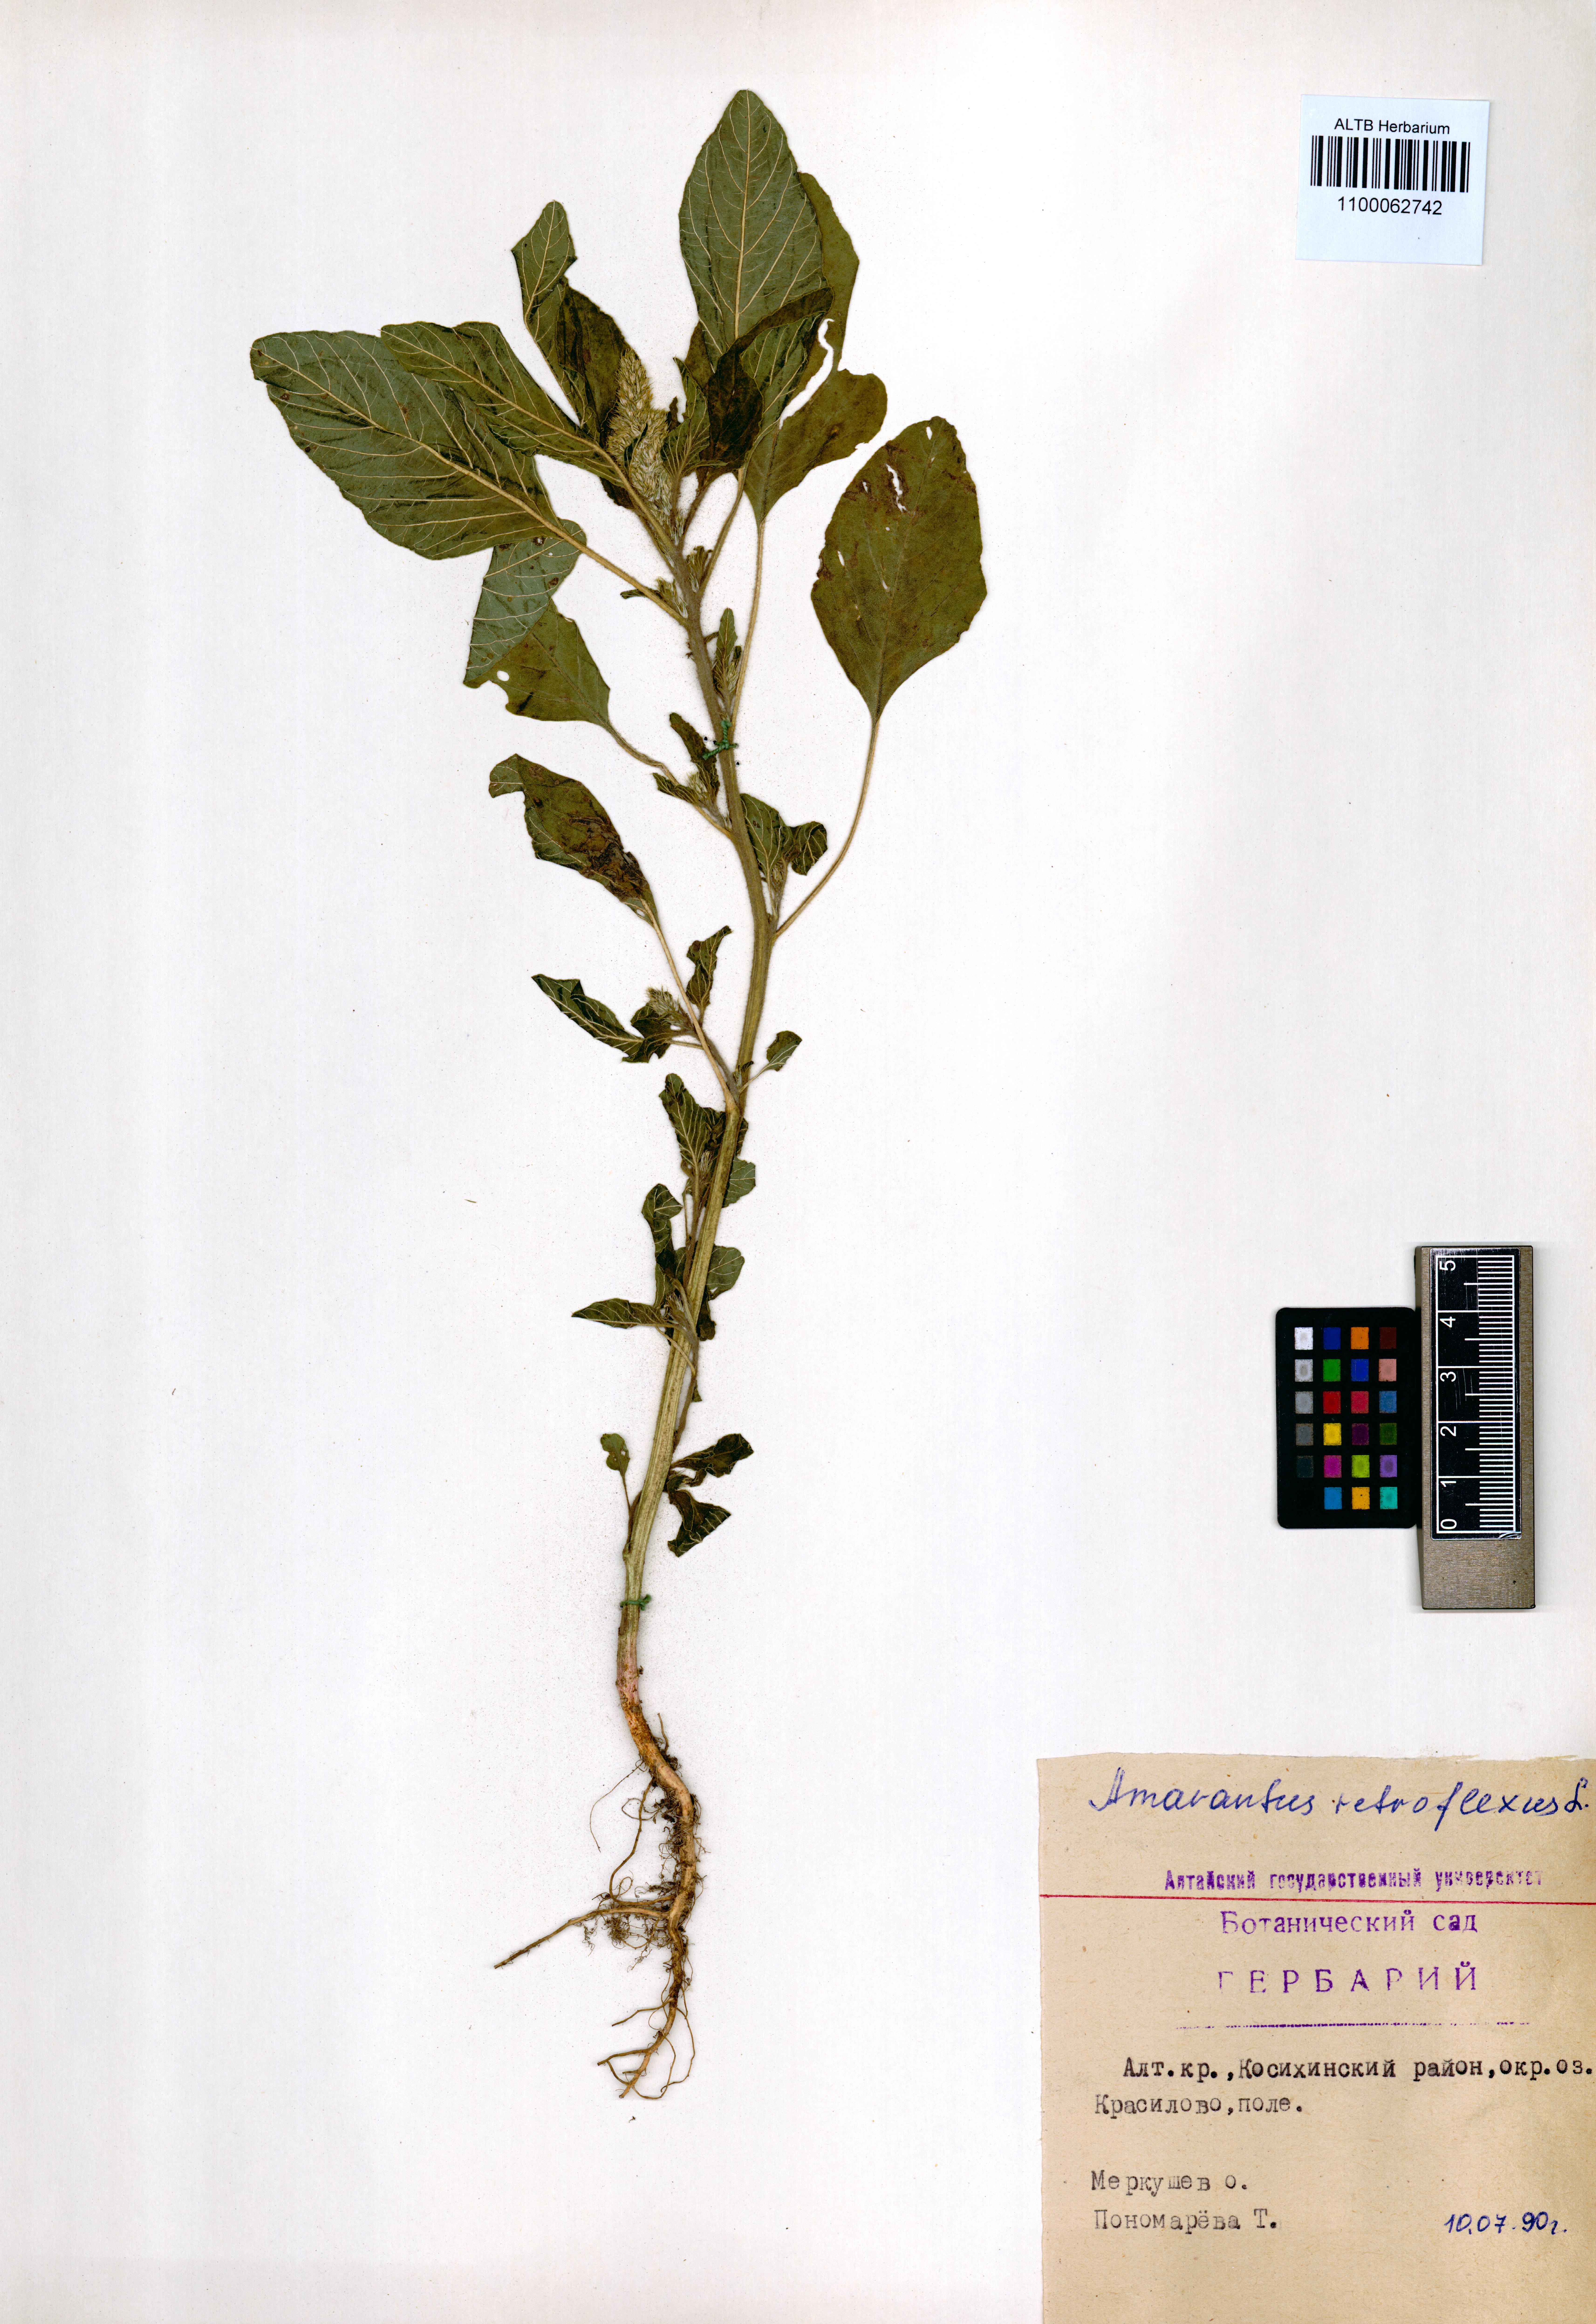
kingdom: Plantae
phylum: Tracheophyta
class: Magnoliopsida
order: Caryophyllales
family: Amaranthaceae
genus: Amaranthus
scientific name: Amaranthus retroflexus
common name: Redroot amaranth
